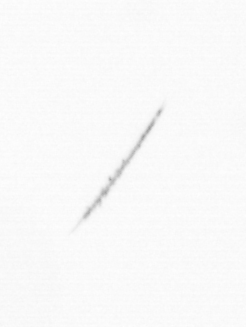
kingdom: Chromista
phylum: Ochrophyta
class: Bacillariophyceae
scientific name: Bacillariophyceae
